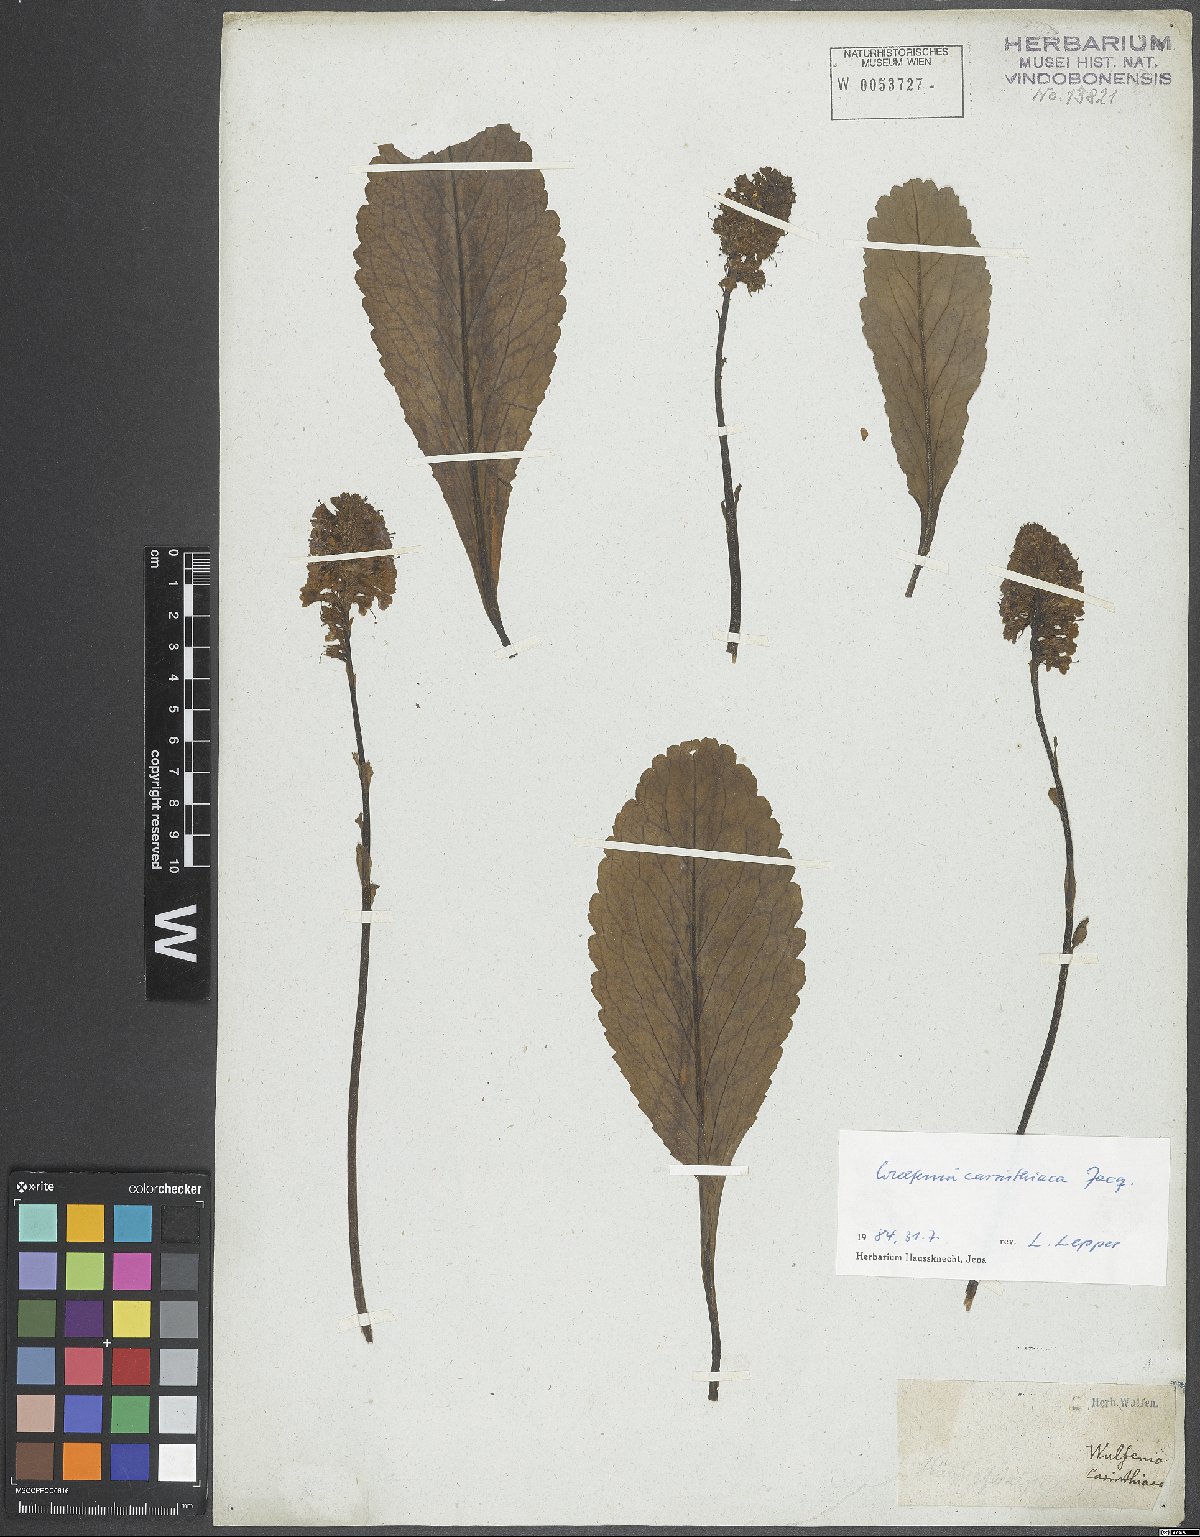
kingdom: Plantae
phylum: Tracheophyta
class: Magnoliopsida
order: Lamiales
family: Plantaginaceae
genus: Wulfenia
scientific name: Wulfenia carinthiaca
